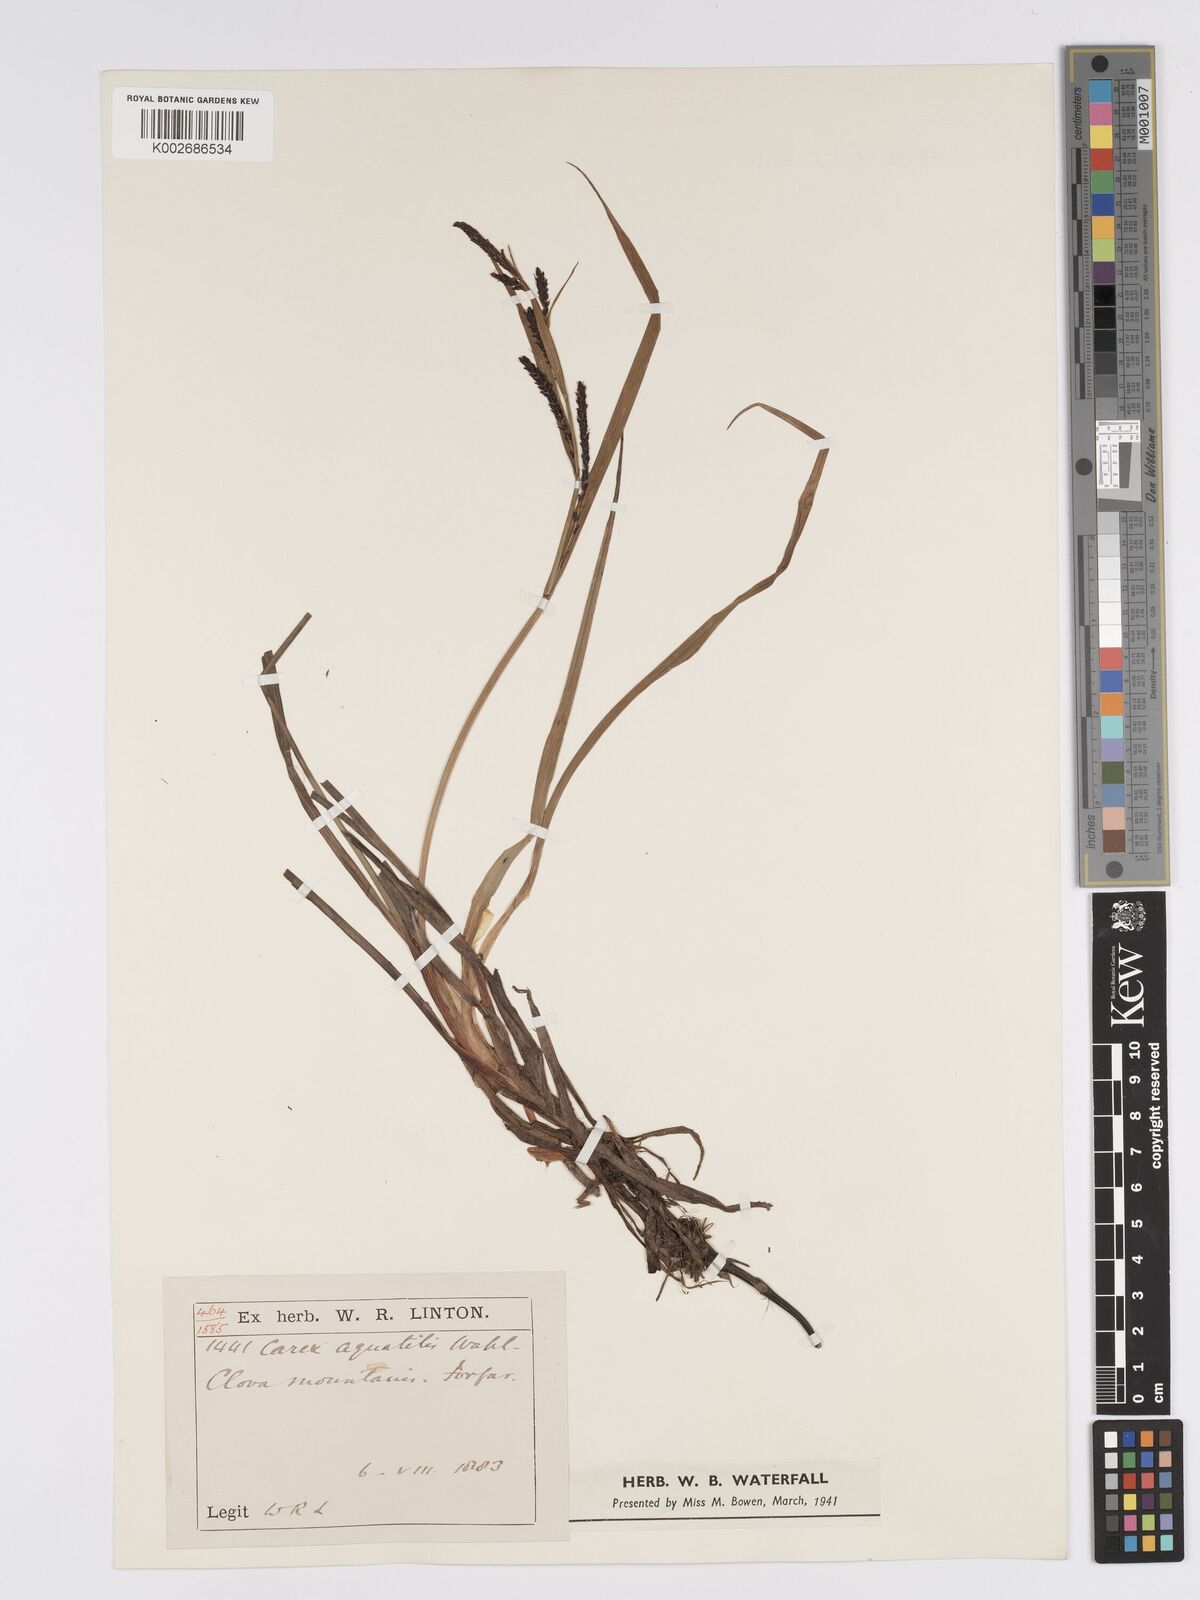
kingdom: Plantae
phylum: Tracheophyta
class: Liliopsida
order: Poales
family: Cyperaceae
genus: Carex
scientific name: Carex aquatilis
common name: Water sedge
